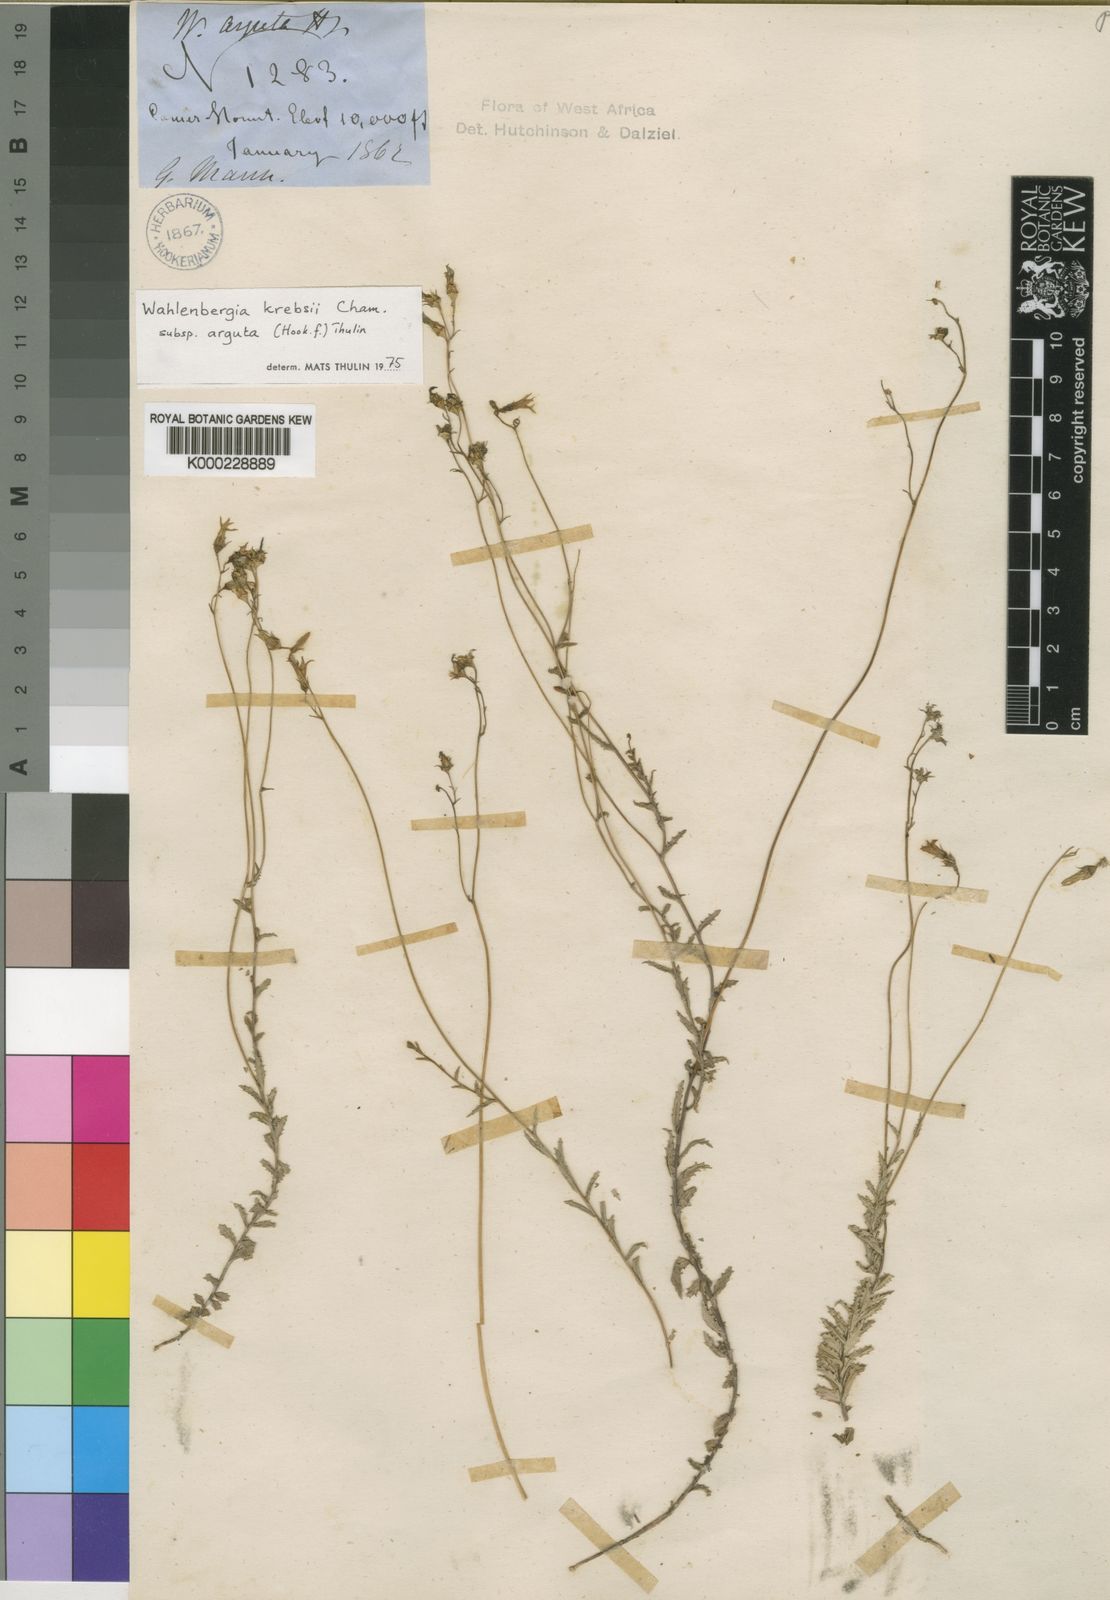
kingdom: Plantae
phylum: Tracheophyta
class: Magnoliopsida
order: Asterales
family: Campanulaceae
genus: Wahlenbergia
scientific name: Wahlenbergia krebsii
